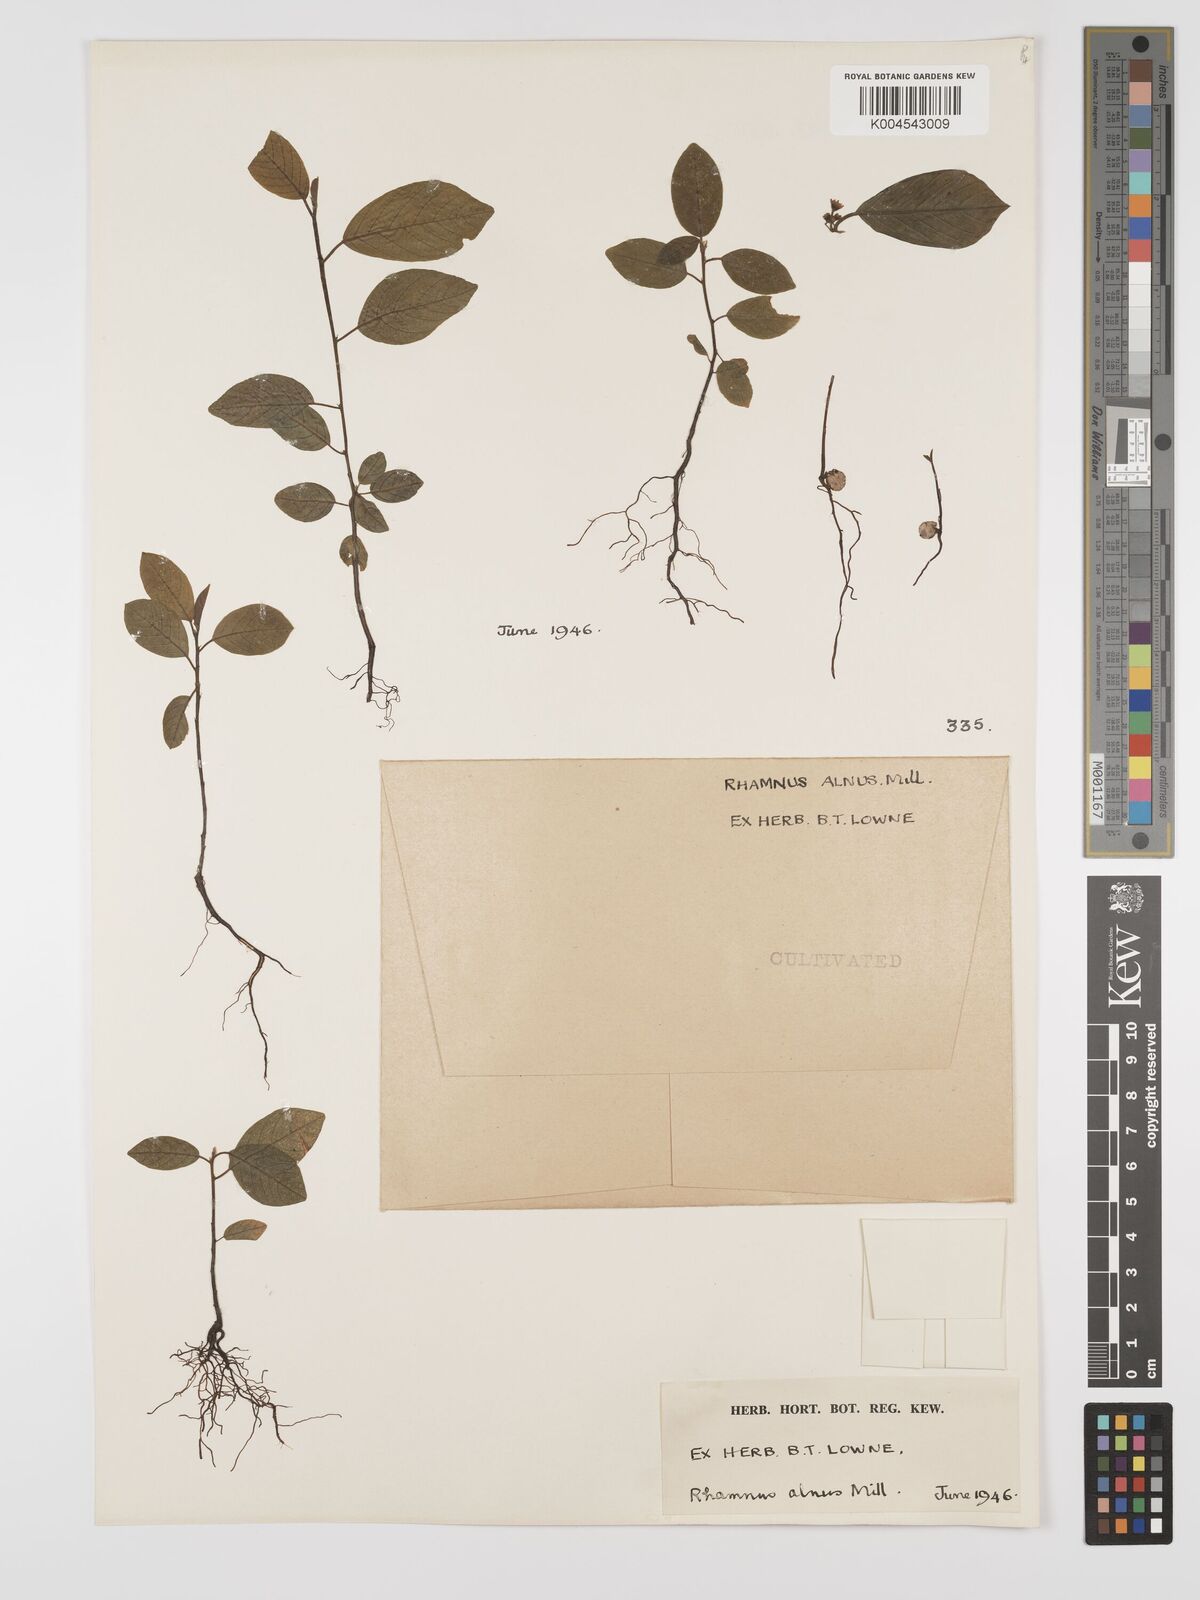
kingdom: Plantae
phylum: Tracheophyta
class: Magnoliopsida
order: Rosales
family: Rhamnaceae
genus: Frangula
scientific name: Frangula alnus
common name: Alder buckthorn
